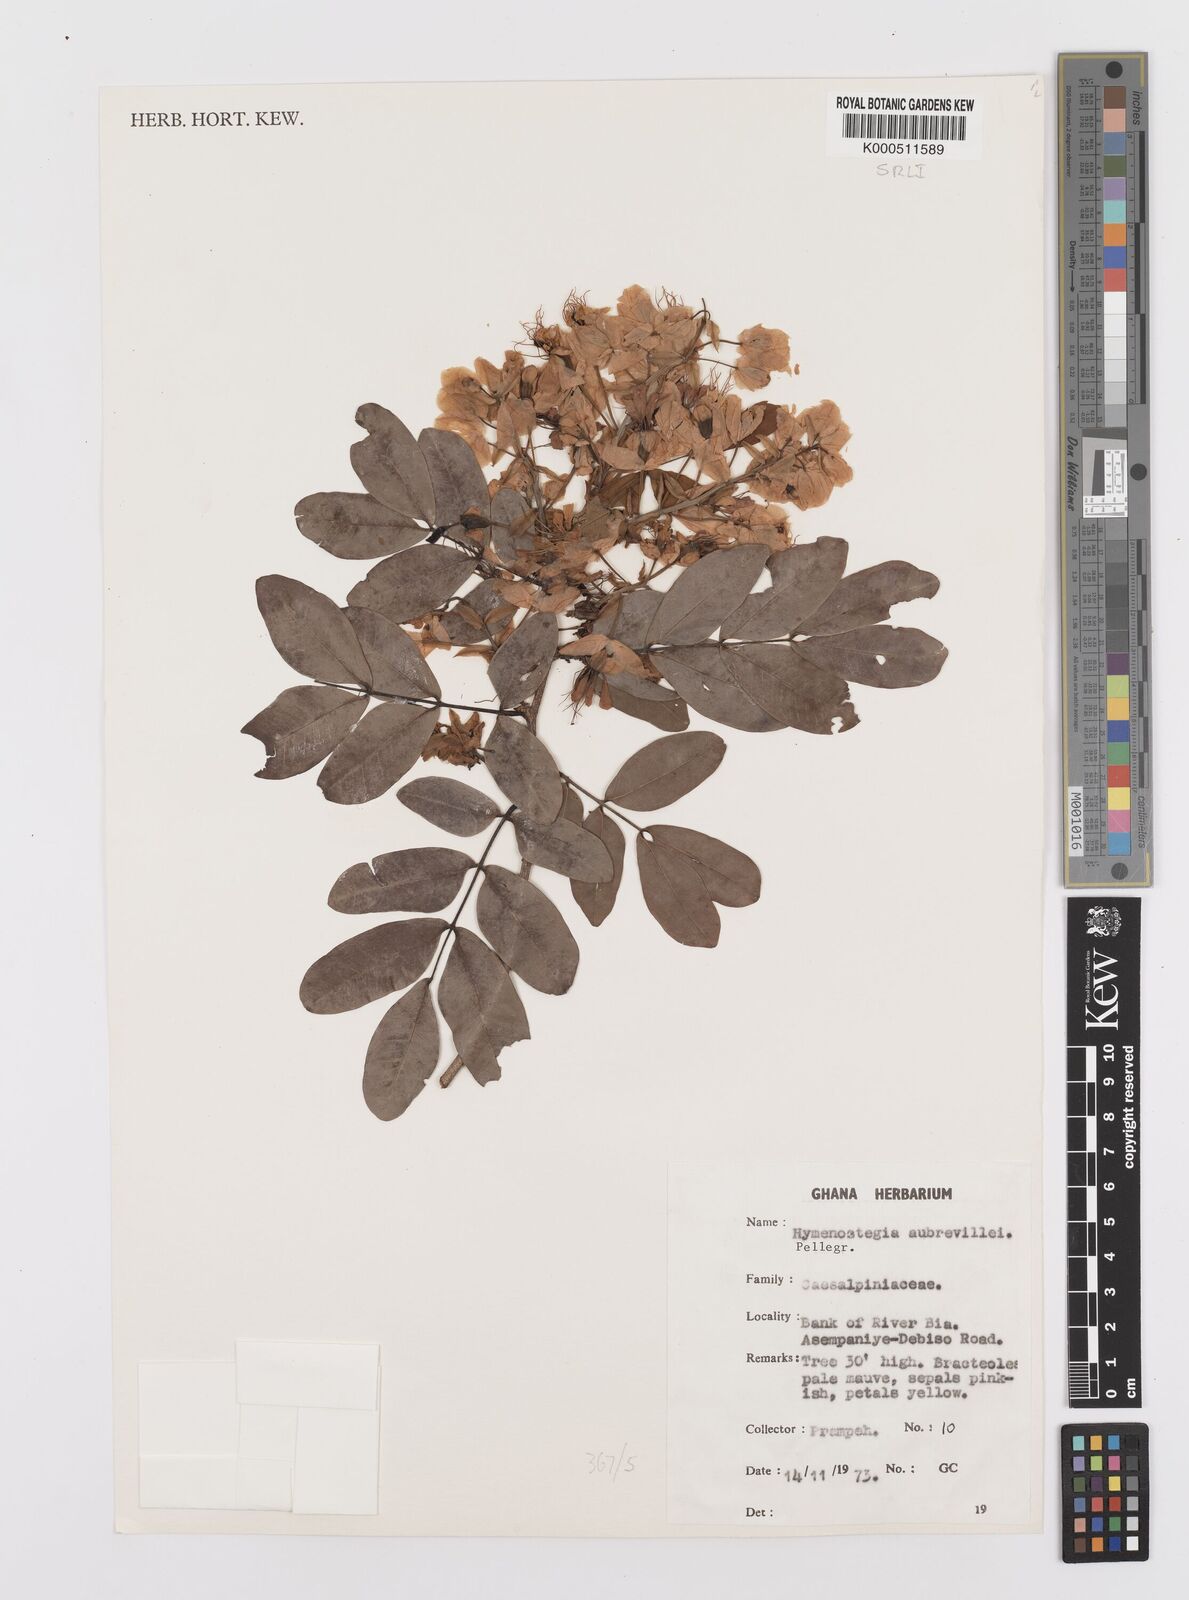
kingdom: Plantae
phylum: Tracheophyta
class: Magnoliopsida
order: Fabales
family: Fabaceae
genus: Hymenostegia
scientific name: Hymenostegia aubrevillei
